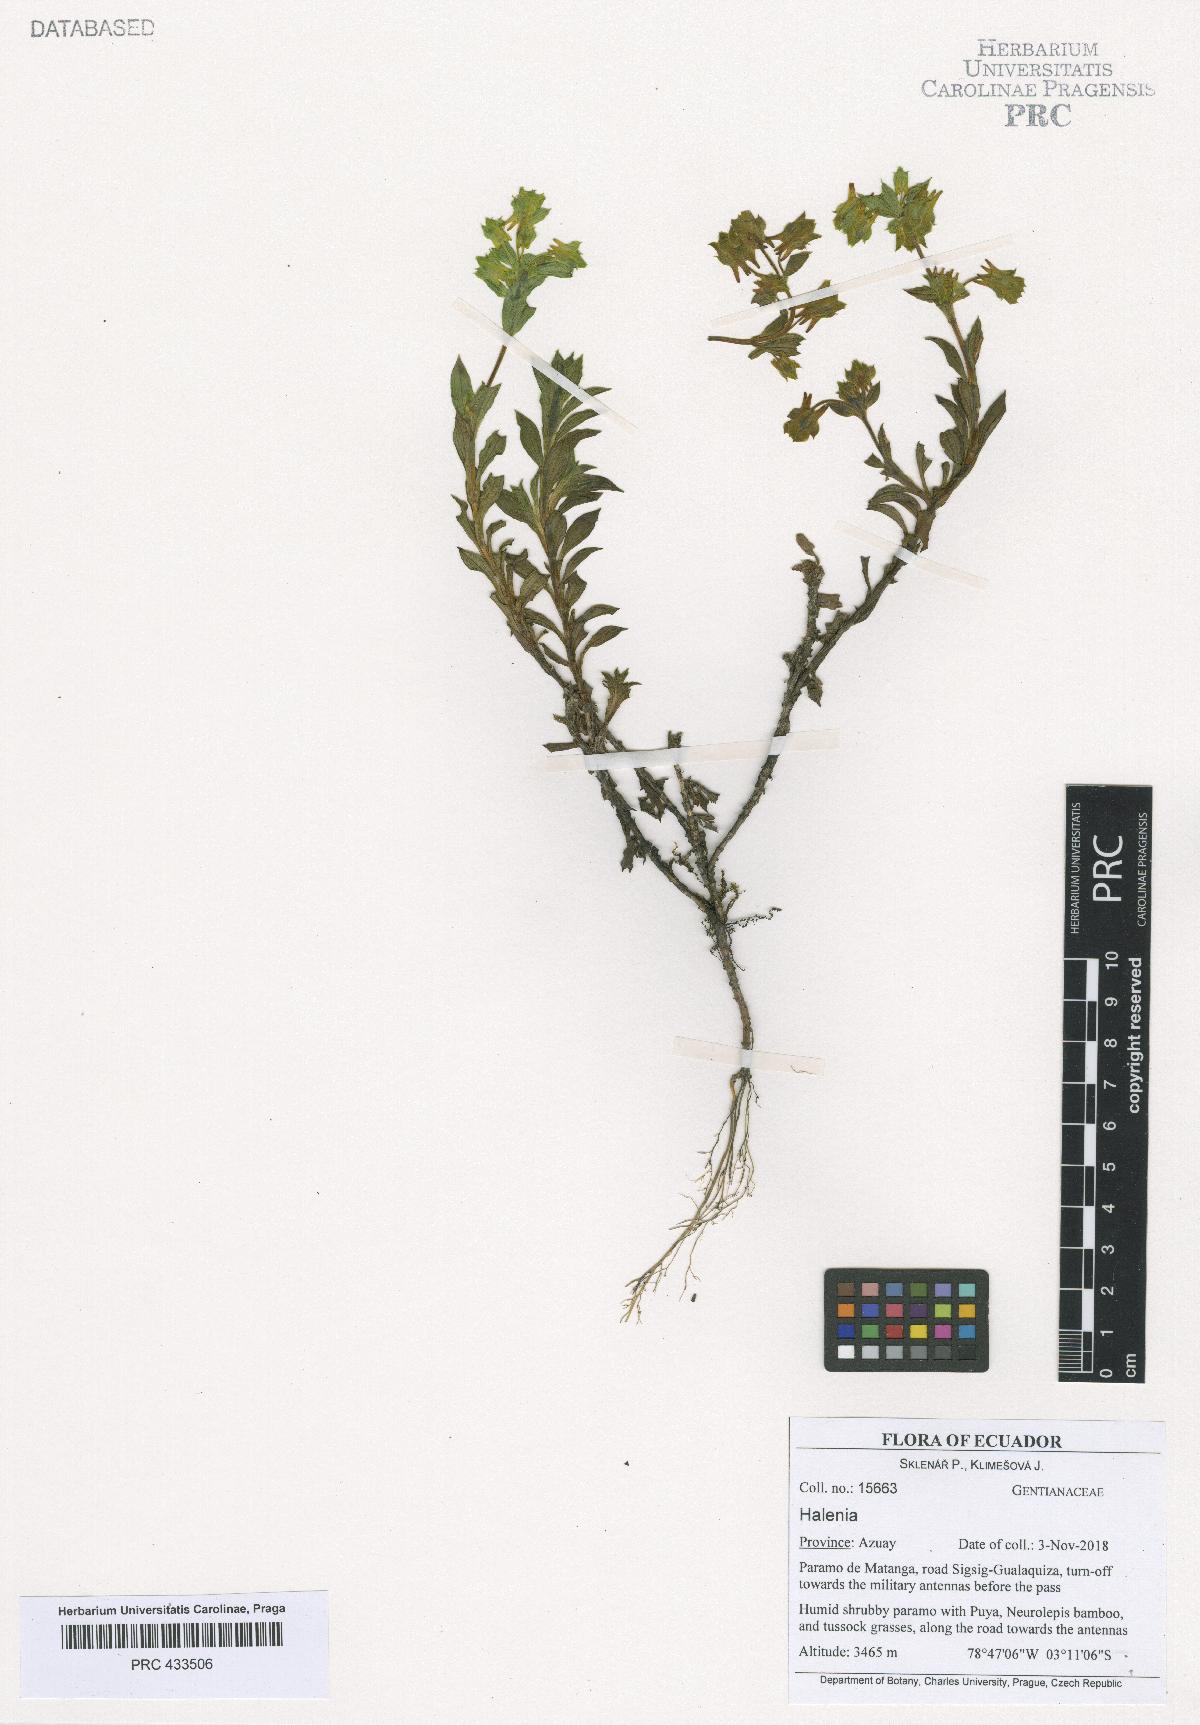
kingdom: Plantae
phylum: Tracheophyta
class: Magnoliopsida
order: Gentianales
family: Gentianaceae
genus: Halenia
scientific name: Halenia
